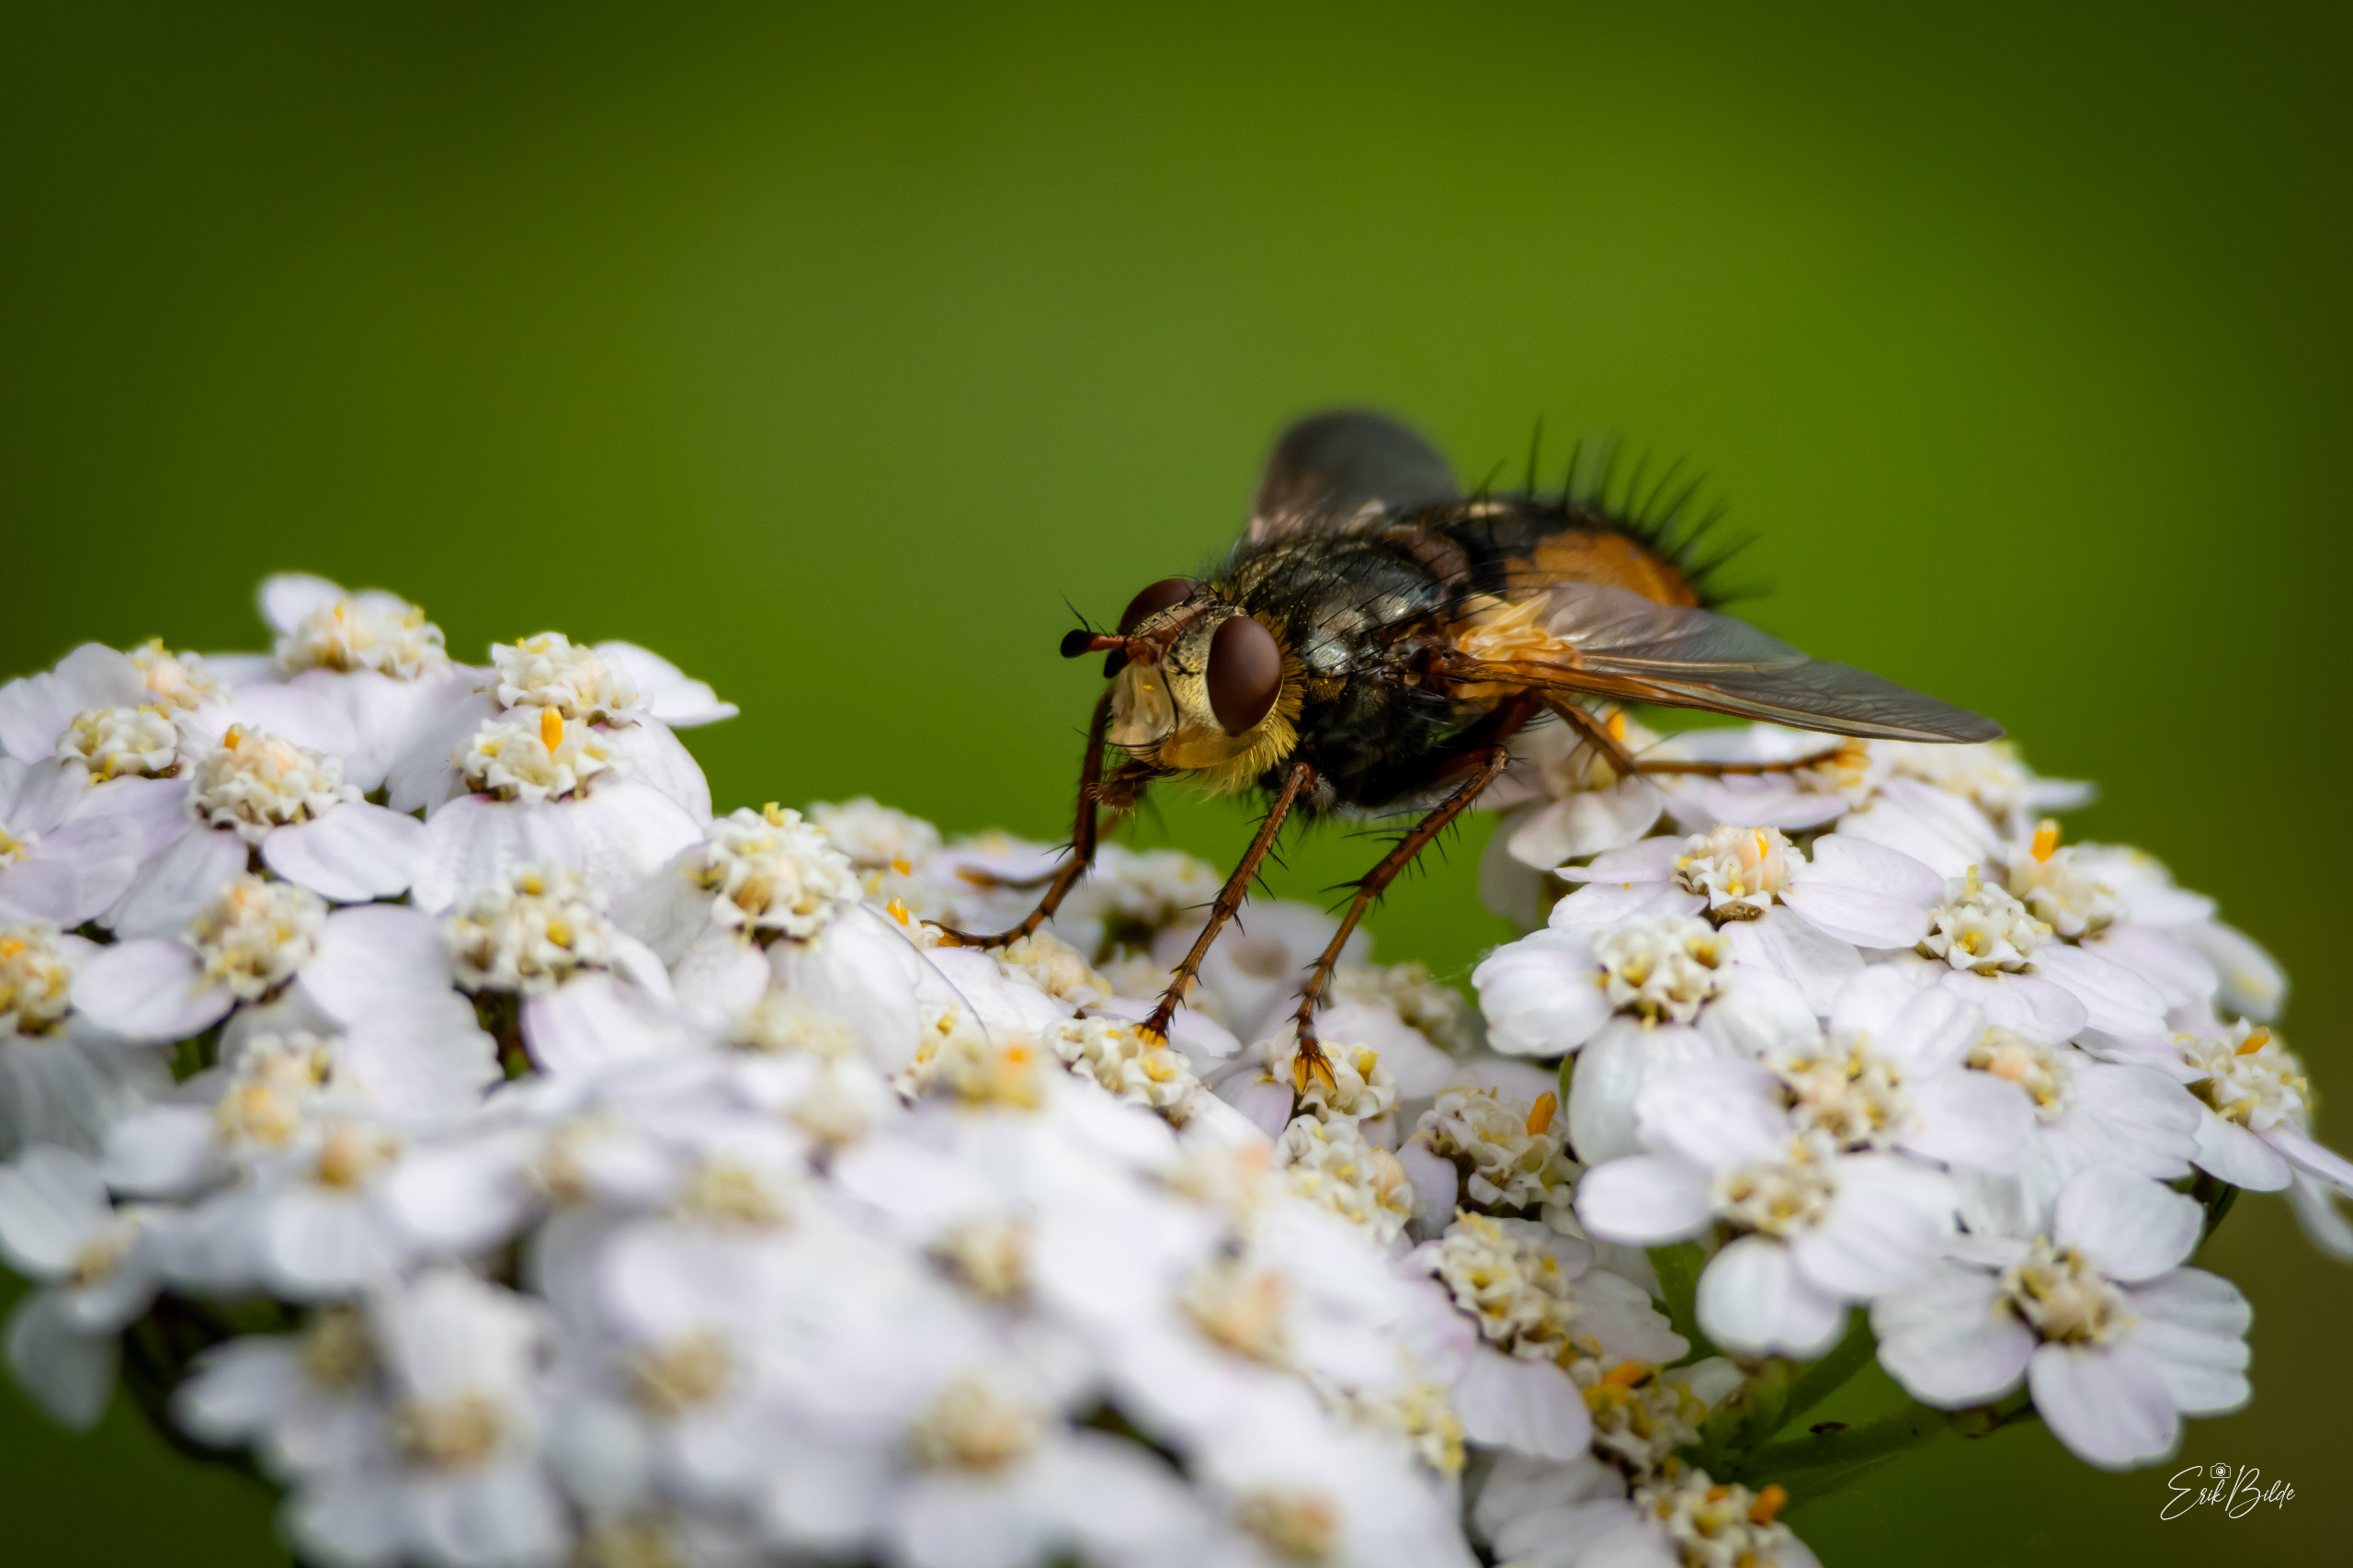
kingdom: Animalia
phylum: Arthropoda
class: Insecta
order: Diptera
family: Tachinidae
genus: Tachina
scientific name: Tachina fera
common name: Mellemfluen oskar
